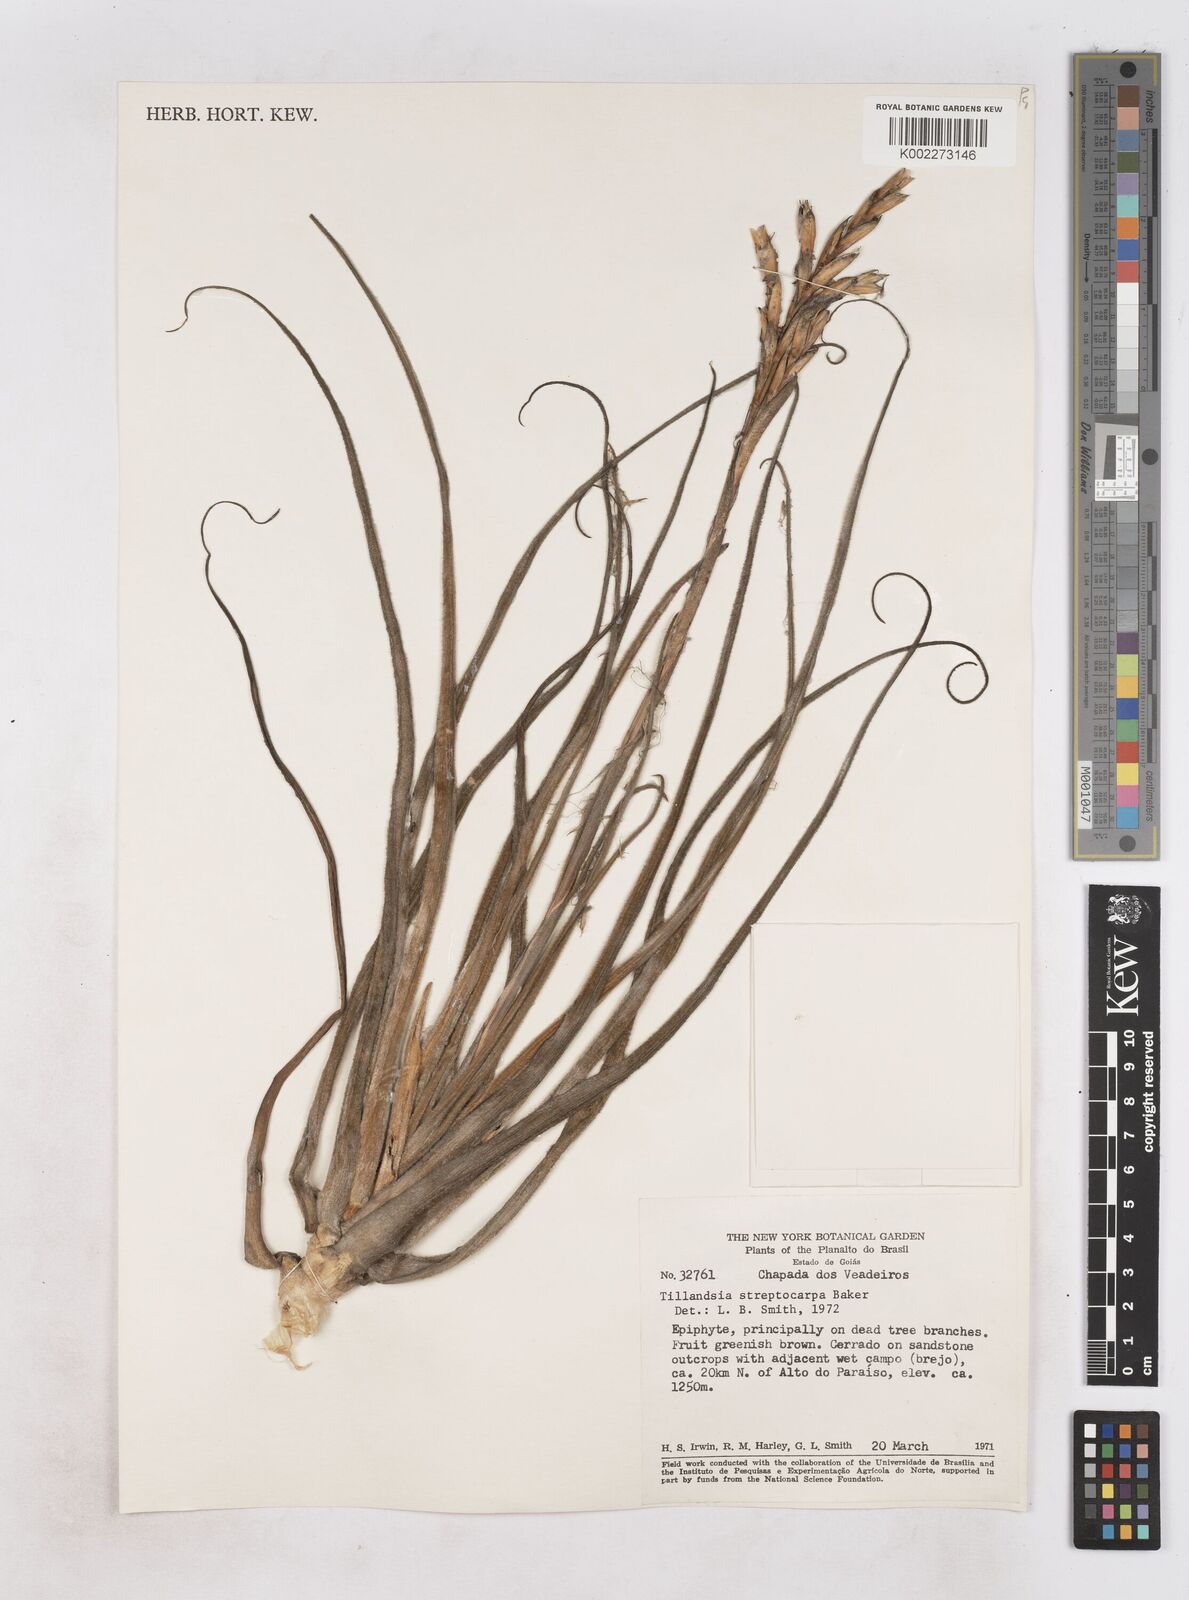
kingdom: Plantae
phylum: Tracheophyta
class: Liliopsida
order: Poales
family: Bromeliaceae
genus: Tillandsia
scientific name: Tillandsia streptocarpa
